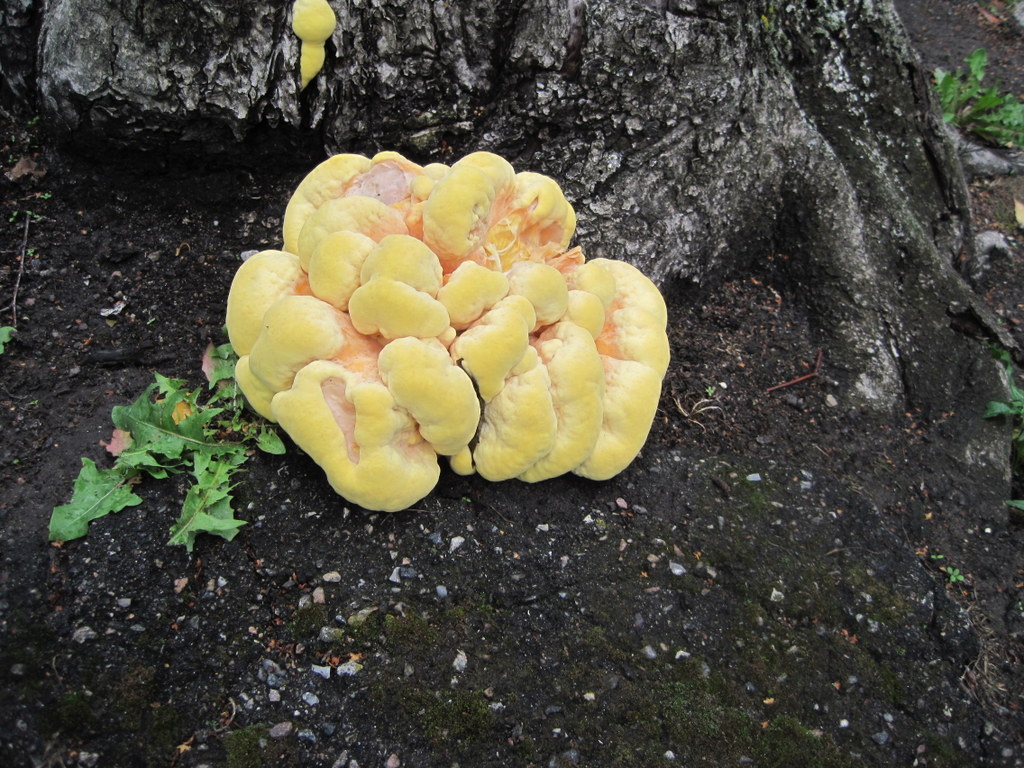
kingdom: Fungi
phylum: Basidiomycota
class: Agaricomycetes
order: Polyporales
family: Laetiporaceae
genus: Laetiporus
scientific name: Laetiporus sulphureus
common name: svovlporesvamp
